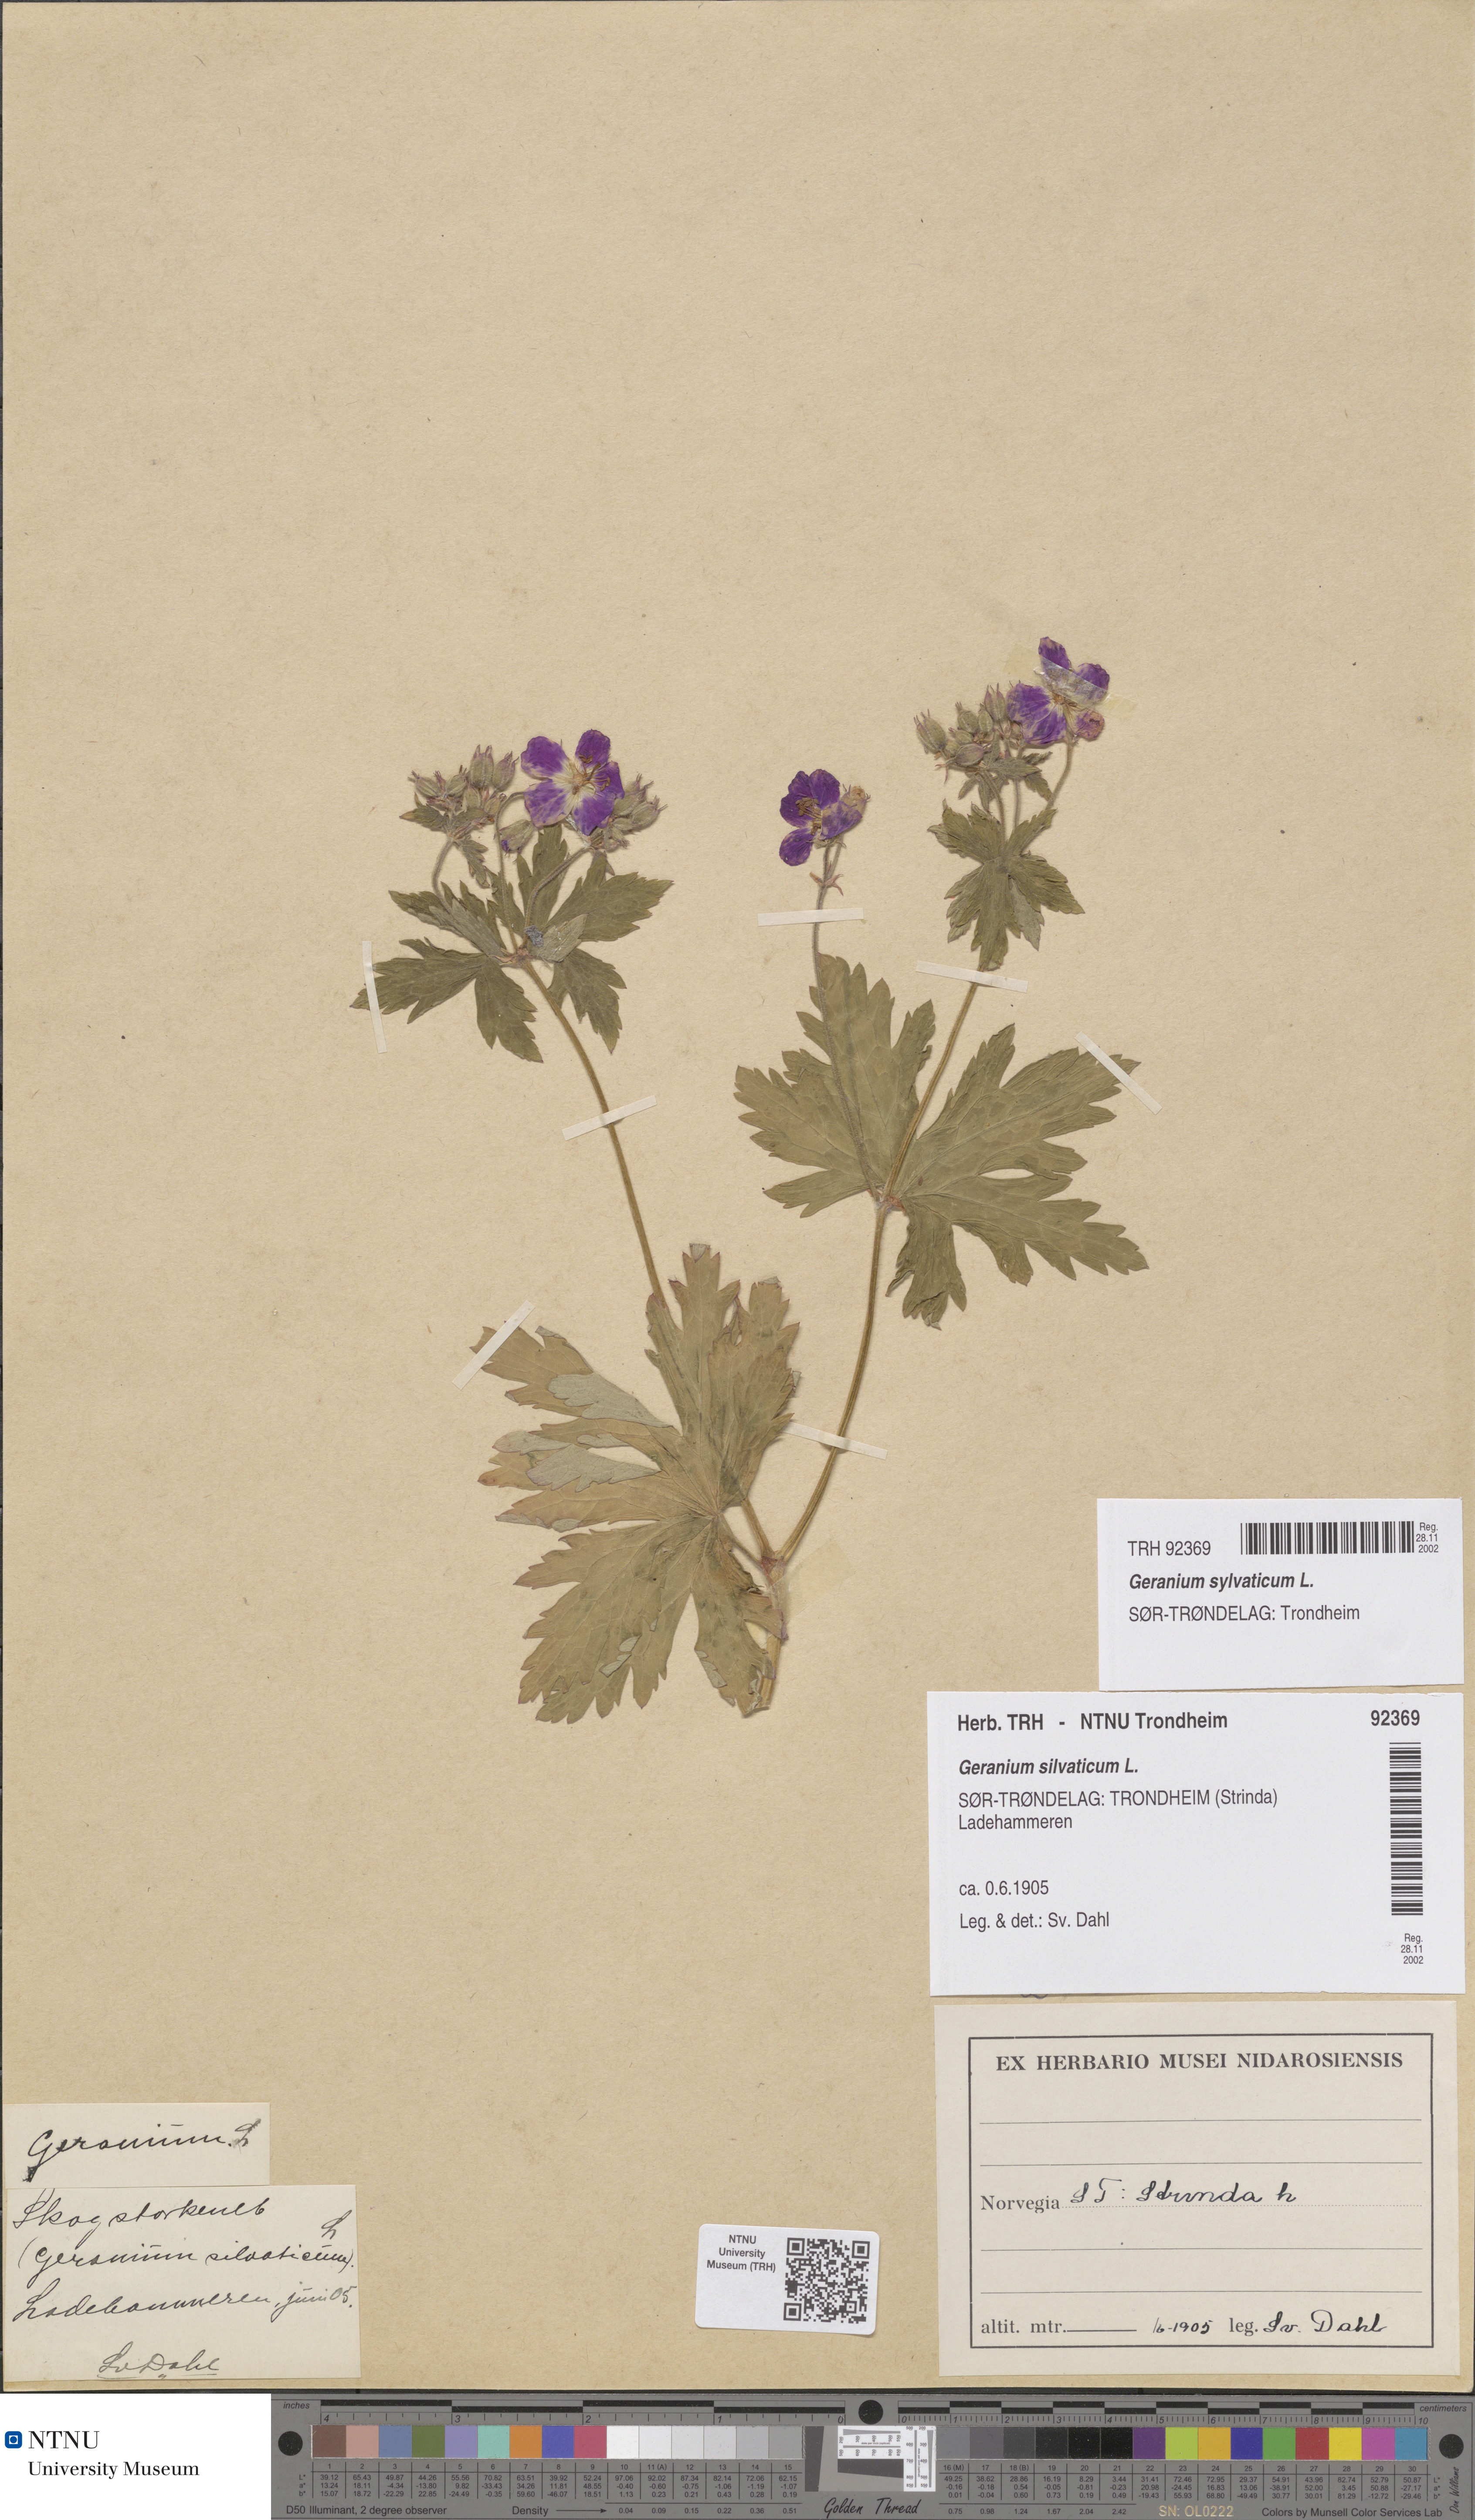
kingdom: Plantae
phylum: Tracheophyta
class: Magnoliopsida
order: Geraniales
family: Geraniaceae
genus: Geranium
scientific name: Geranium sylvaticum
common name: Wood crane's-bill
